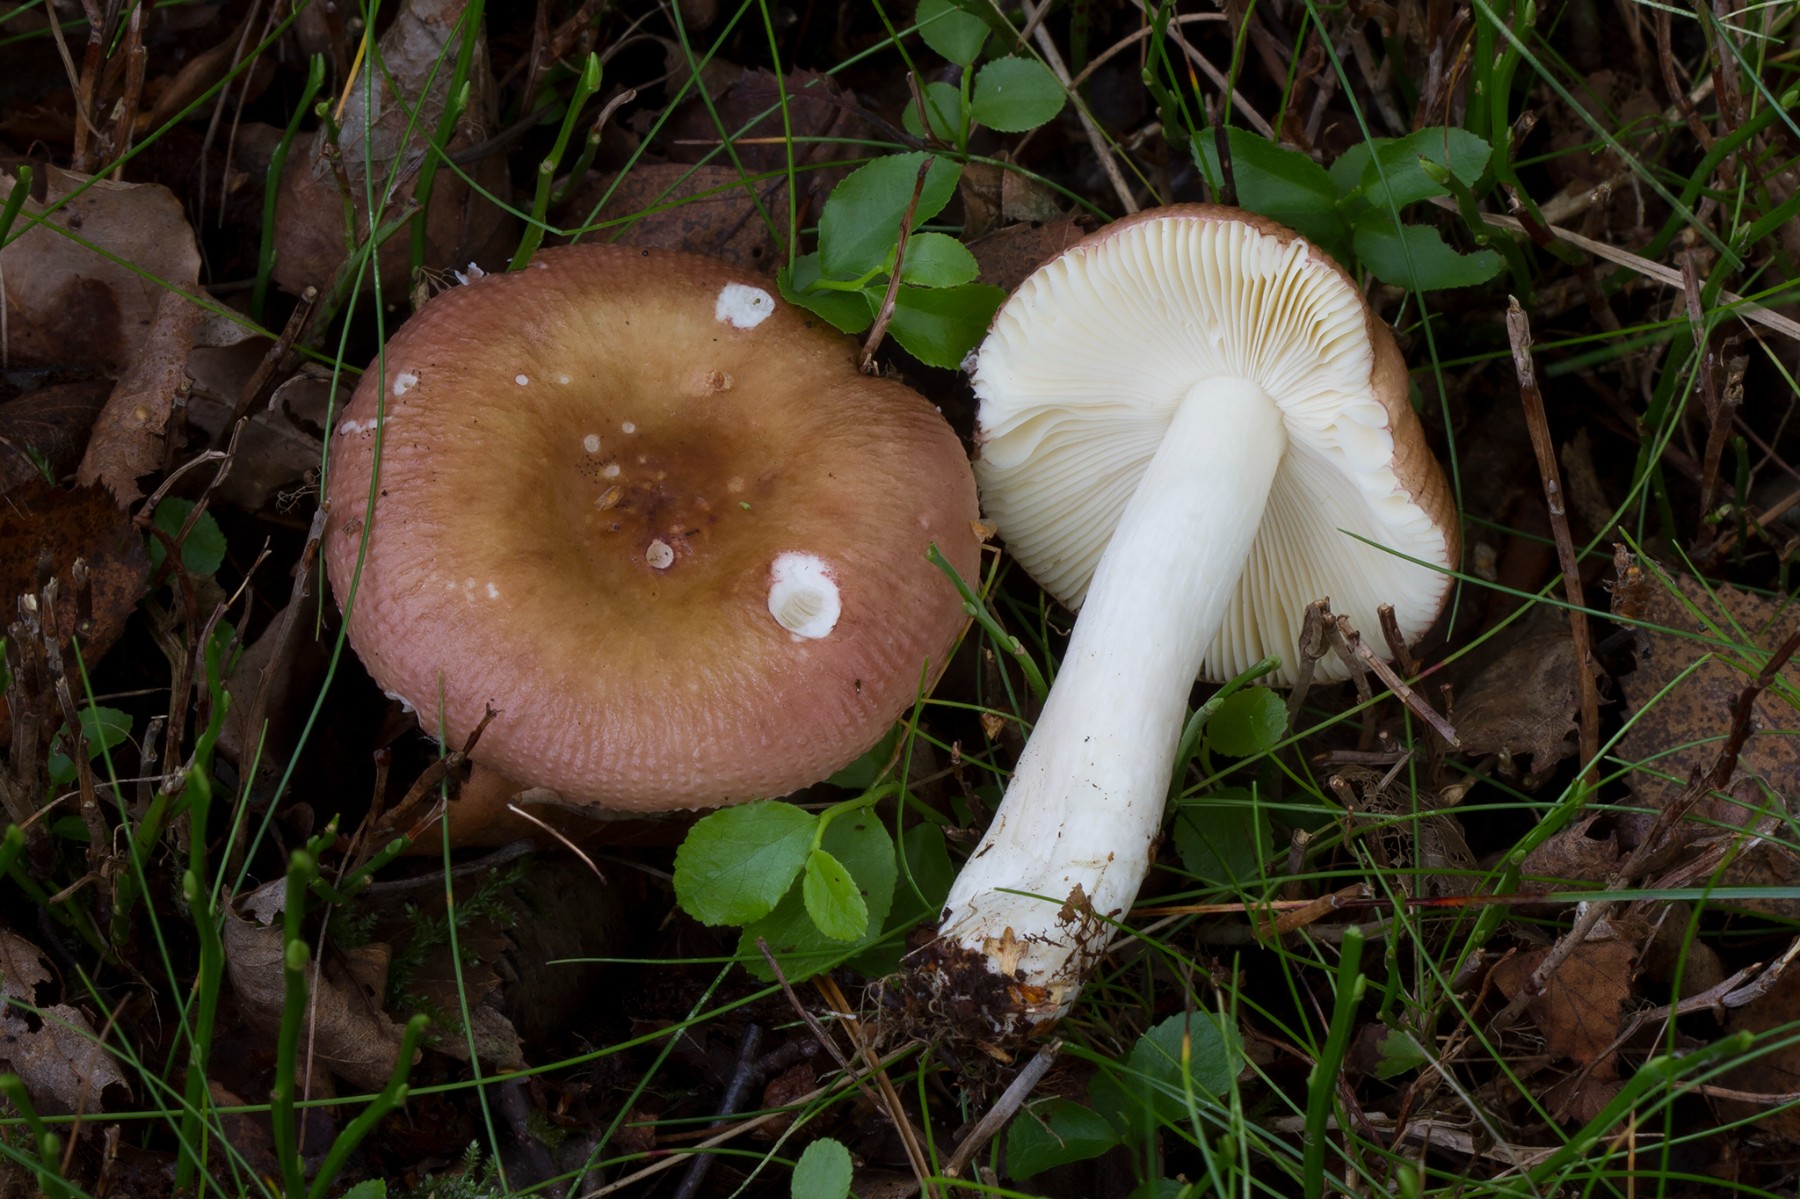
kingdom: Fungi
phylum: Basidiomycota
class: Agaricomycetes
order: Russulales
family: Russulaceae
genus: Russula
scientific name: Russula velenovskyi
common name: orangerød skørhat
